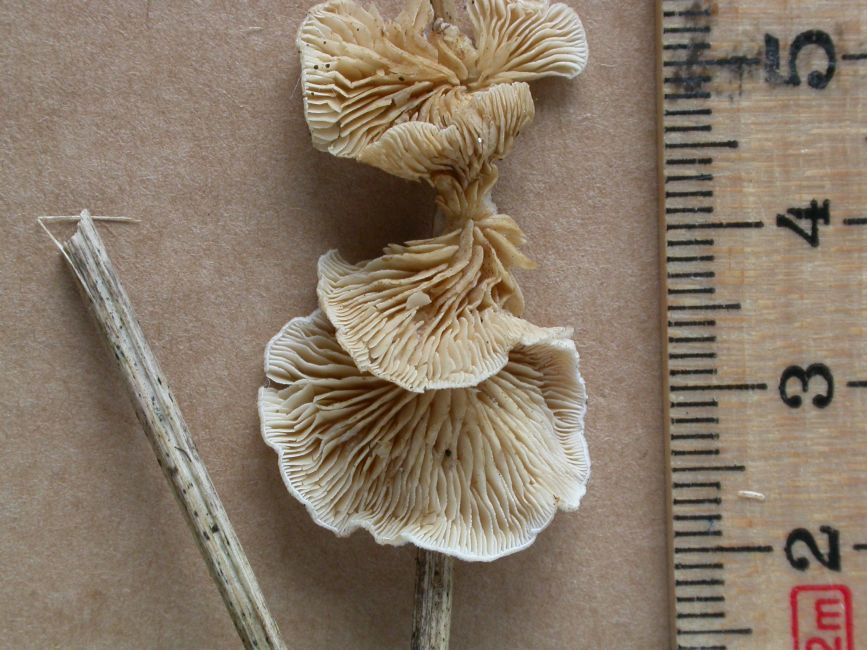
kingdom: Fungi
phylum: Basidiomycota
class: Agaricomycetes
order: Agaricales
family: Crepidotaceae
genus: Crepidotus
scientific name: Crepidotus caspari
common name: Lundells muslingesvamp
